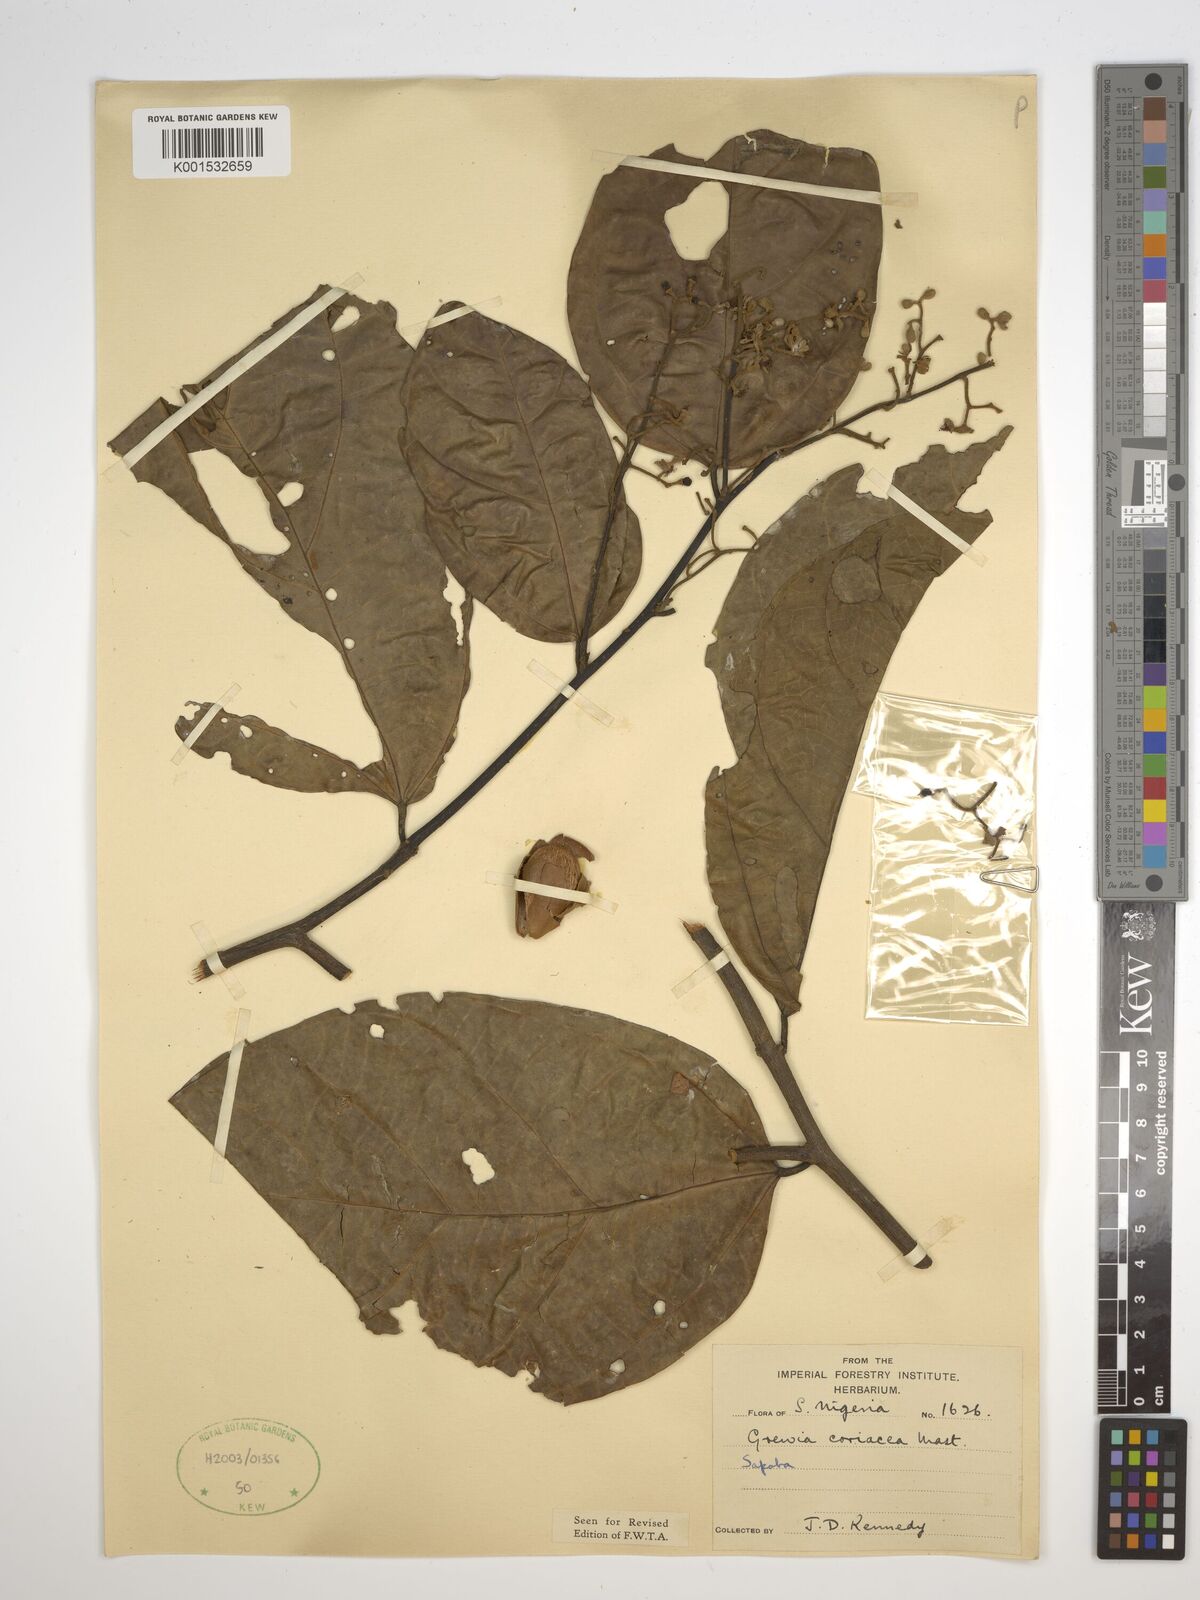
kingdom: Plantae
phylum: Tracheophyta
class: Magnoliopsida
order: Malvales
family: Malvaceae
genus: Microcos
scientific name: Microcos coriacea
